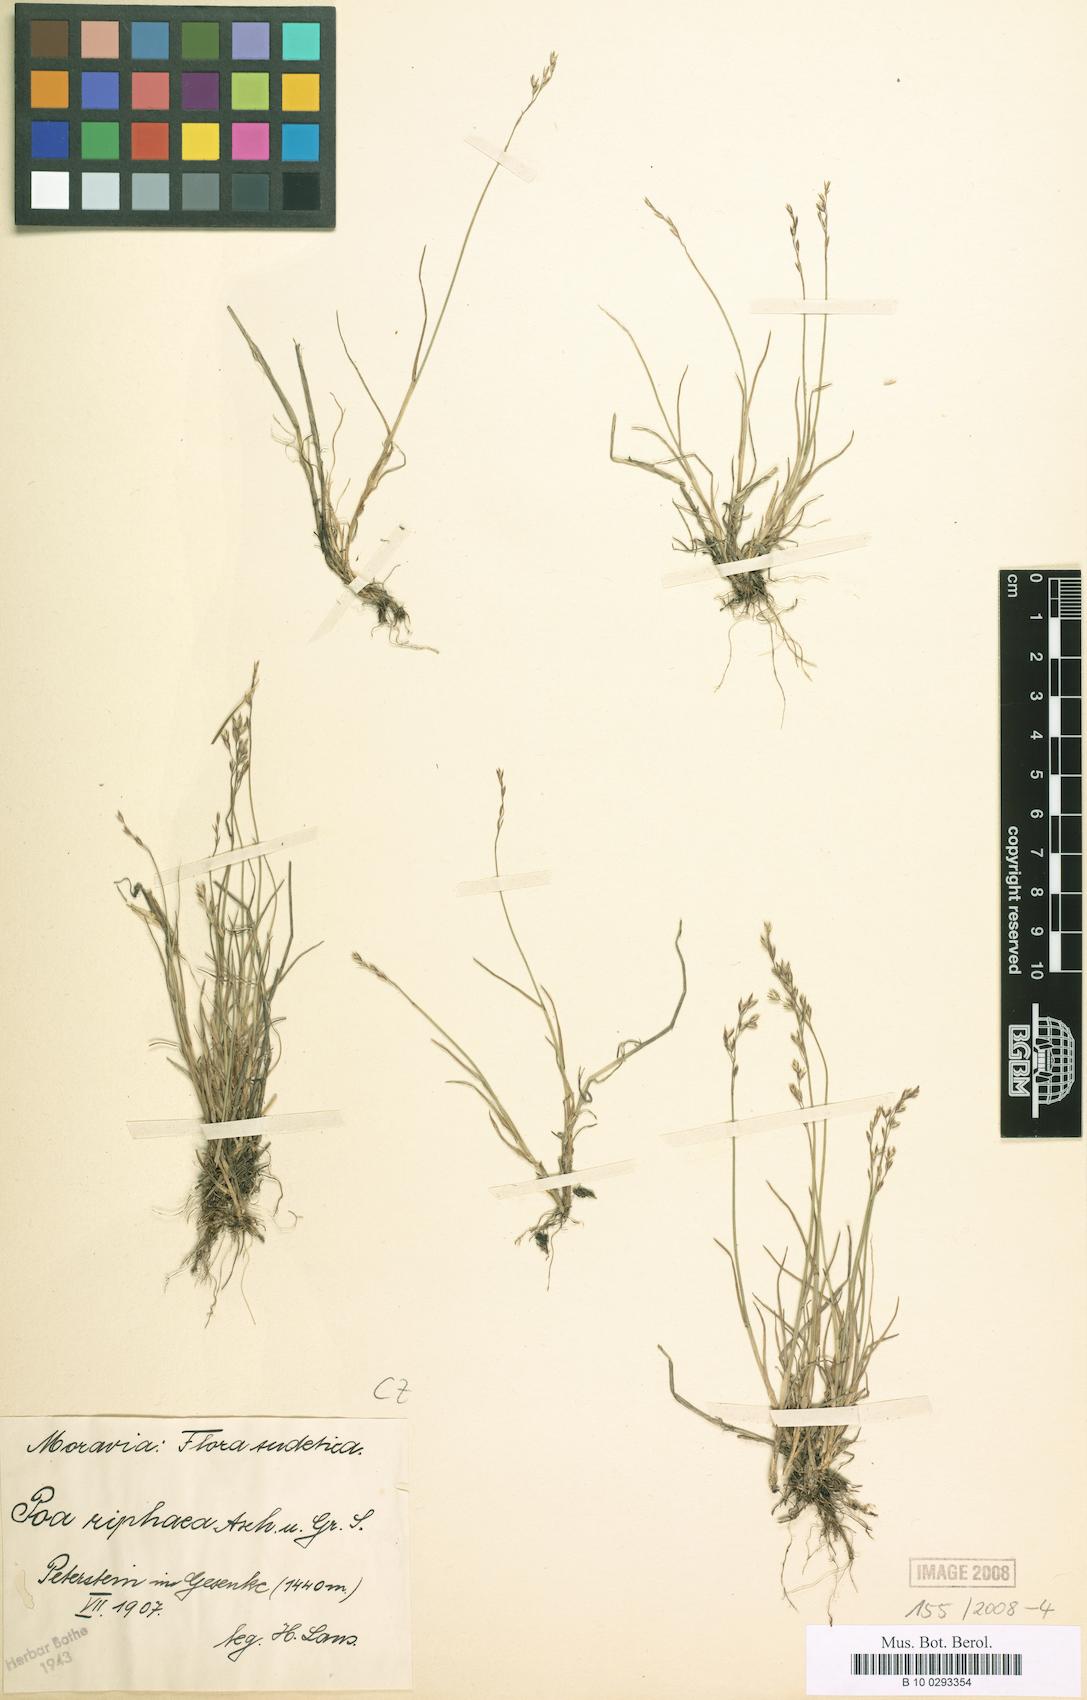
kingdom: Plantae
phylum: Tracheophyta
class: Liliopsida
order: Poales
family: Poaceae
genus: Poa
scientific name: Poa glauca
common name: Glaucous bluegrass
